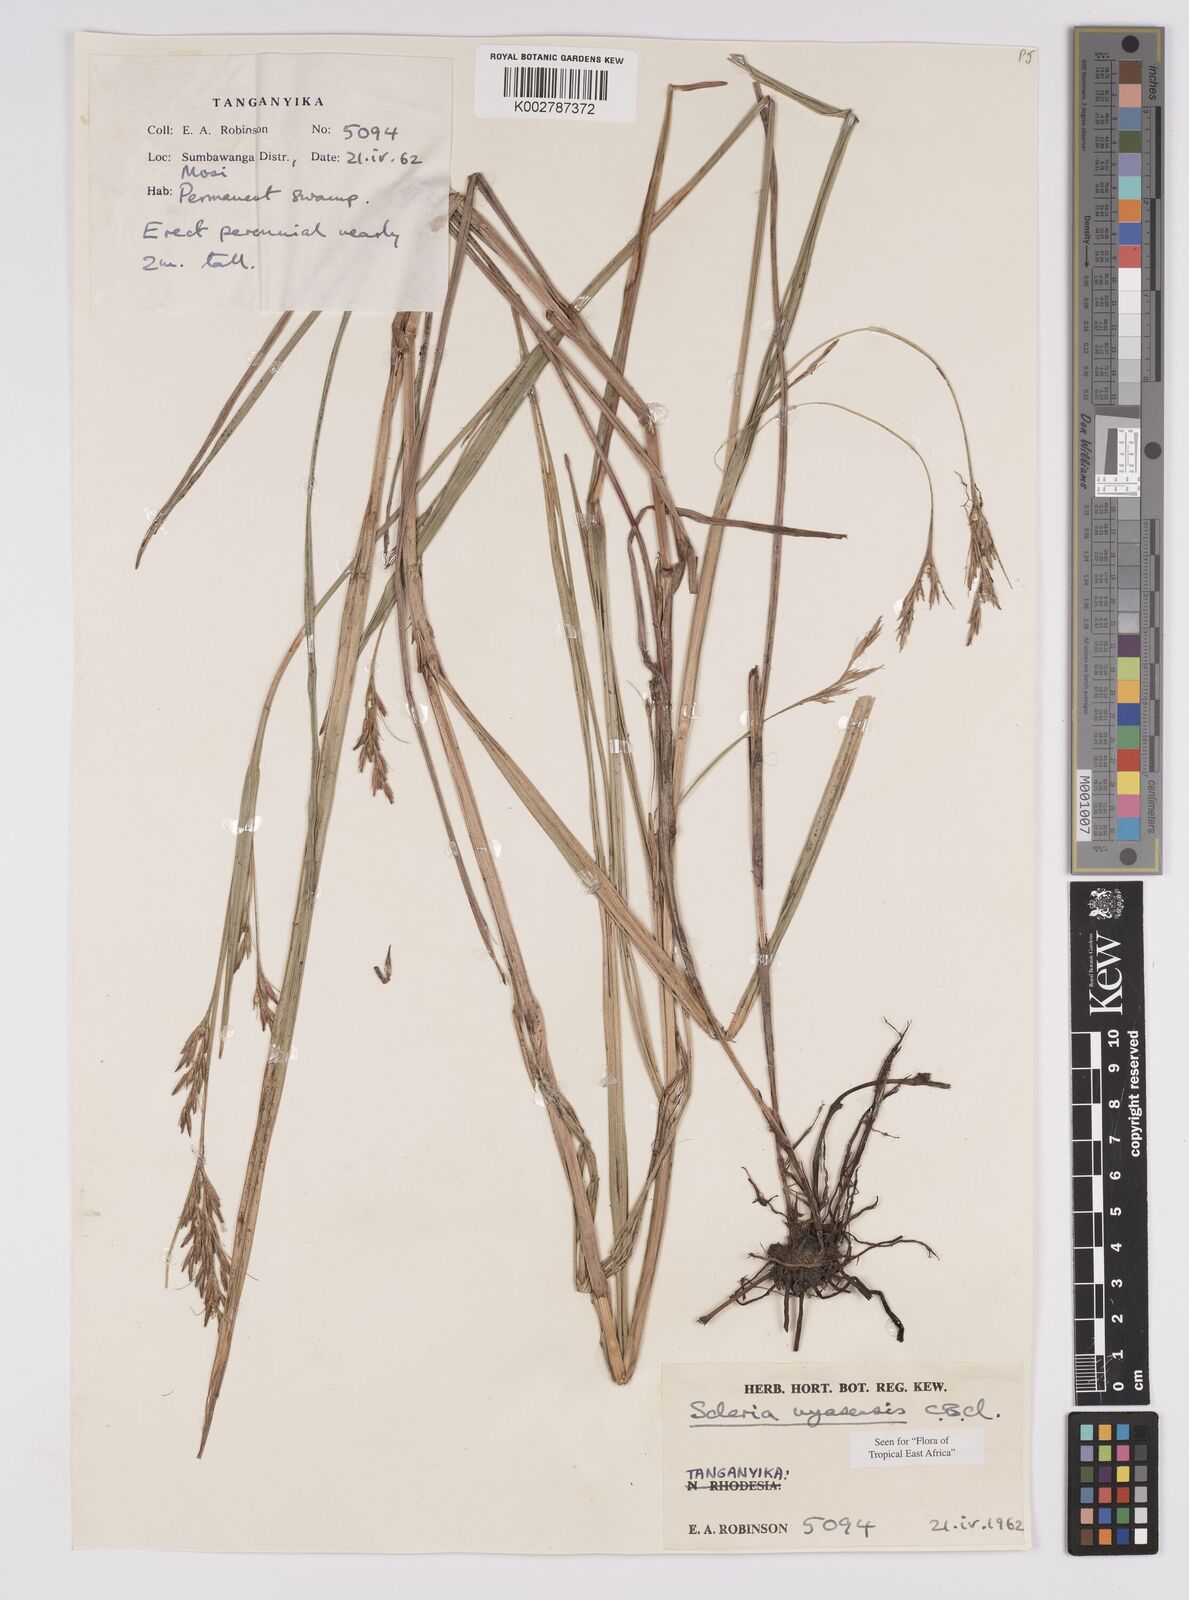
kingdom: Plantae
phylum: Tracheophyta
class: Liliopsida
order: Poales
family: Cyperaceae
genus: Scleria
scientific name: Scleria nyasensis
